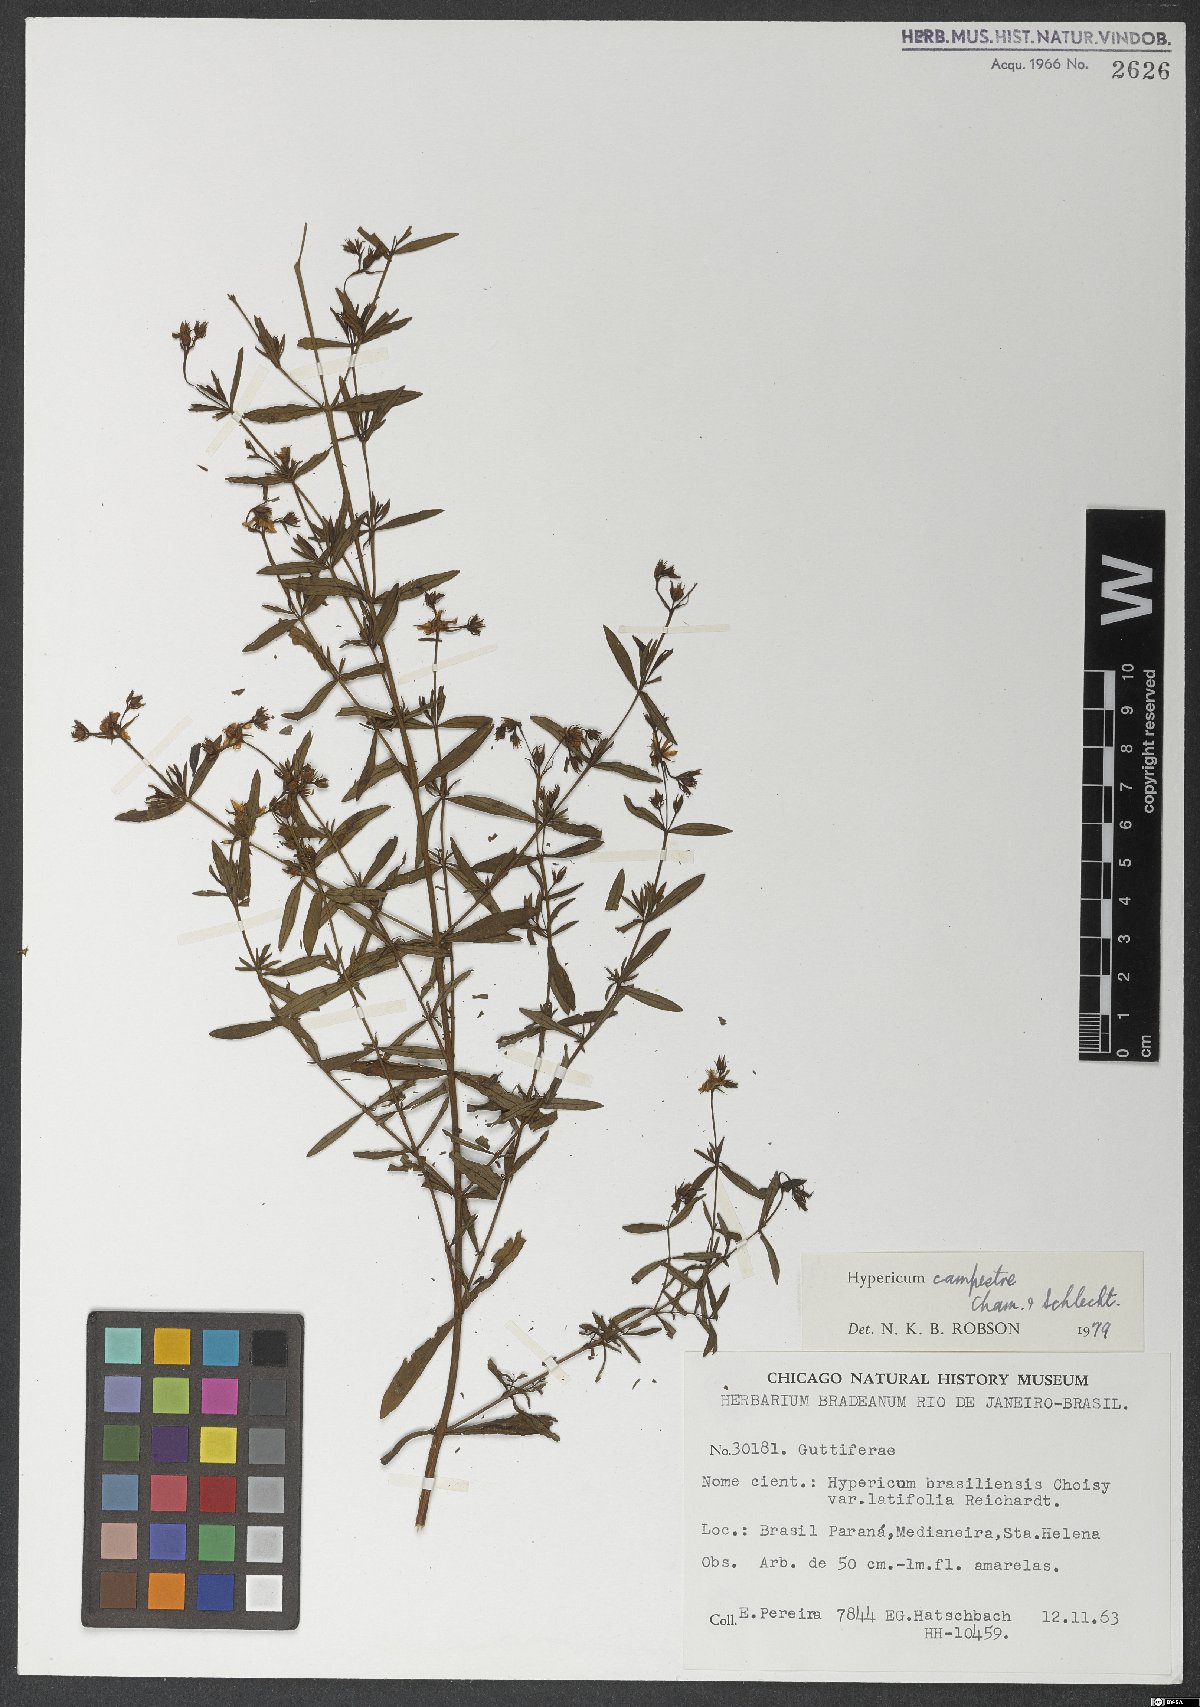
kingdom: Plantae
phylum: Tracheophyta
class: Magnoliopsida
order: Malpighiales
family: Hypericaceae
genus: Hypericum
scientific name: Hypericum campestre
